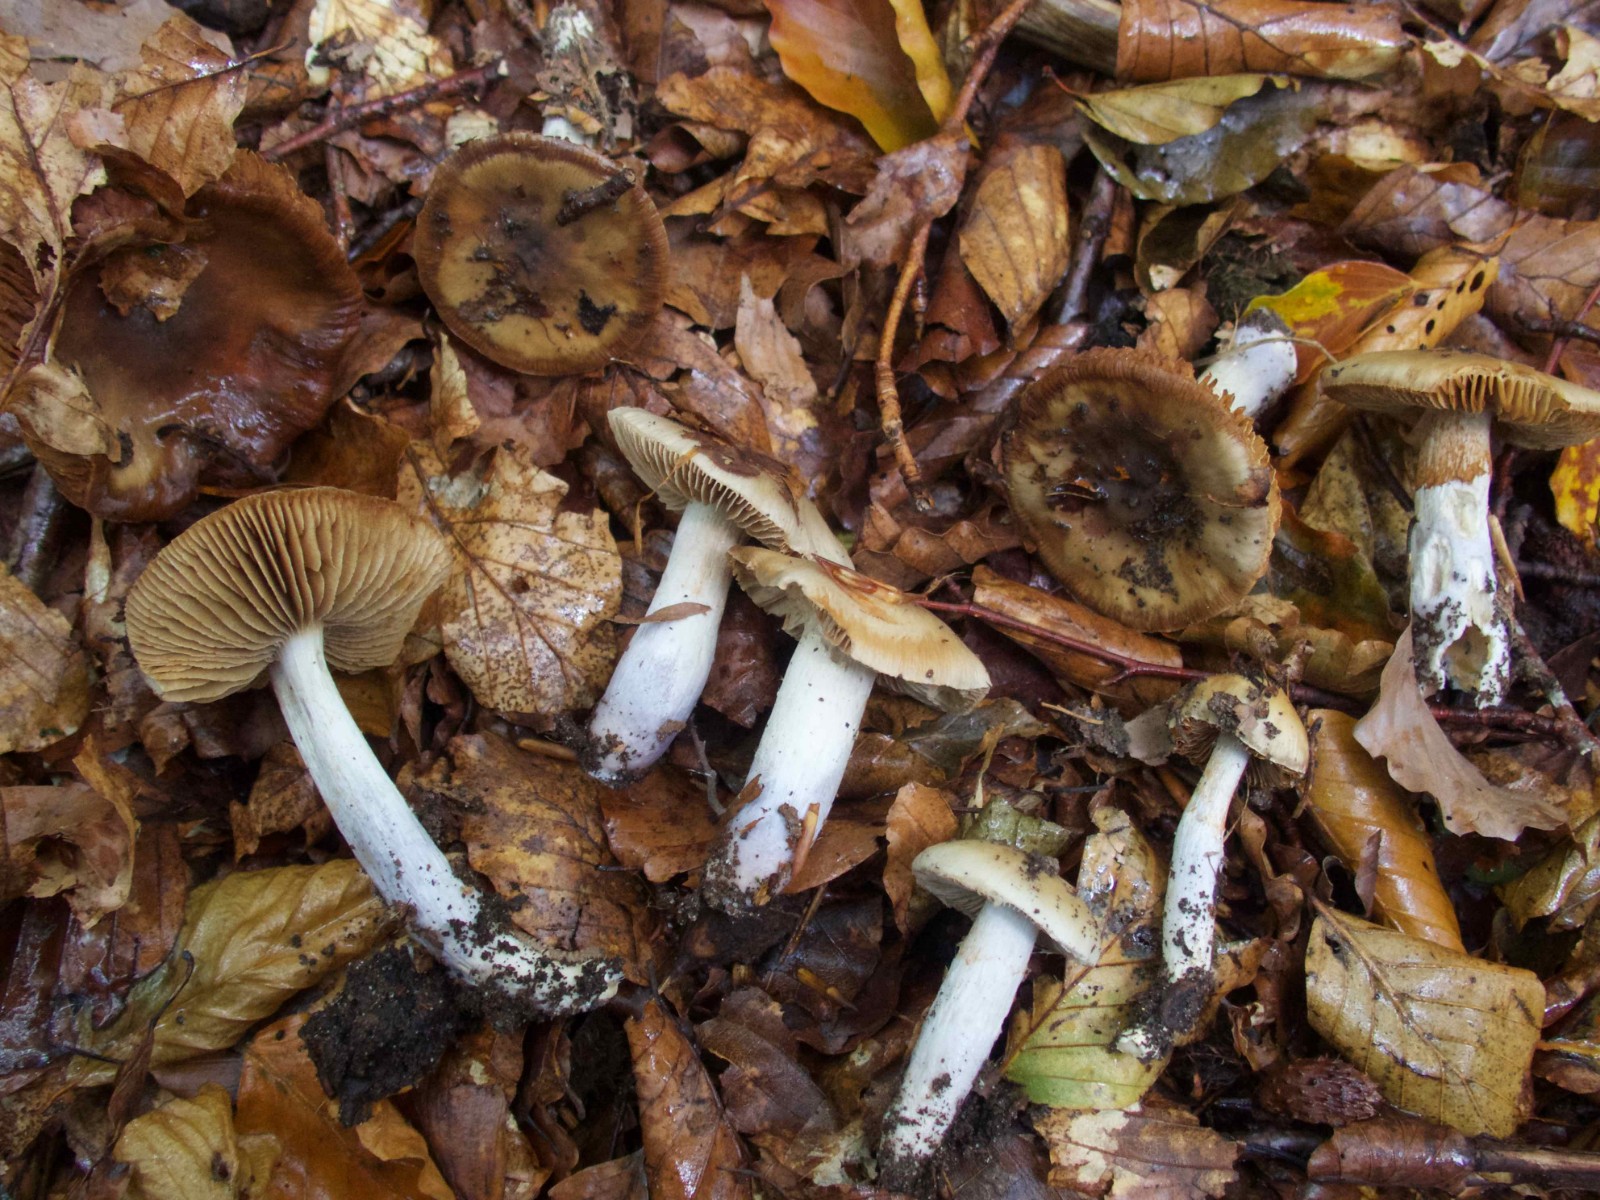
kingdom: Fungi
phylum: Basidiomycota
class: Agaricomycetes
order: Agaricales
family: Cortinariaceae
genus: Cortinarius
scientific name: Cortinarius livido-ochraceus
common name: halvhøj slørhat
